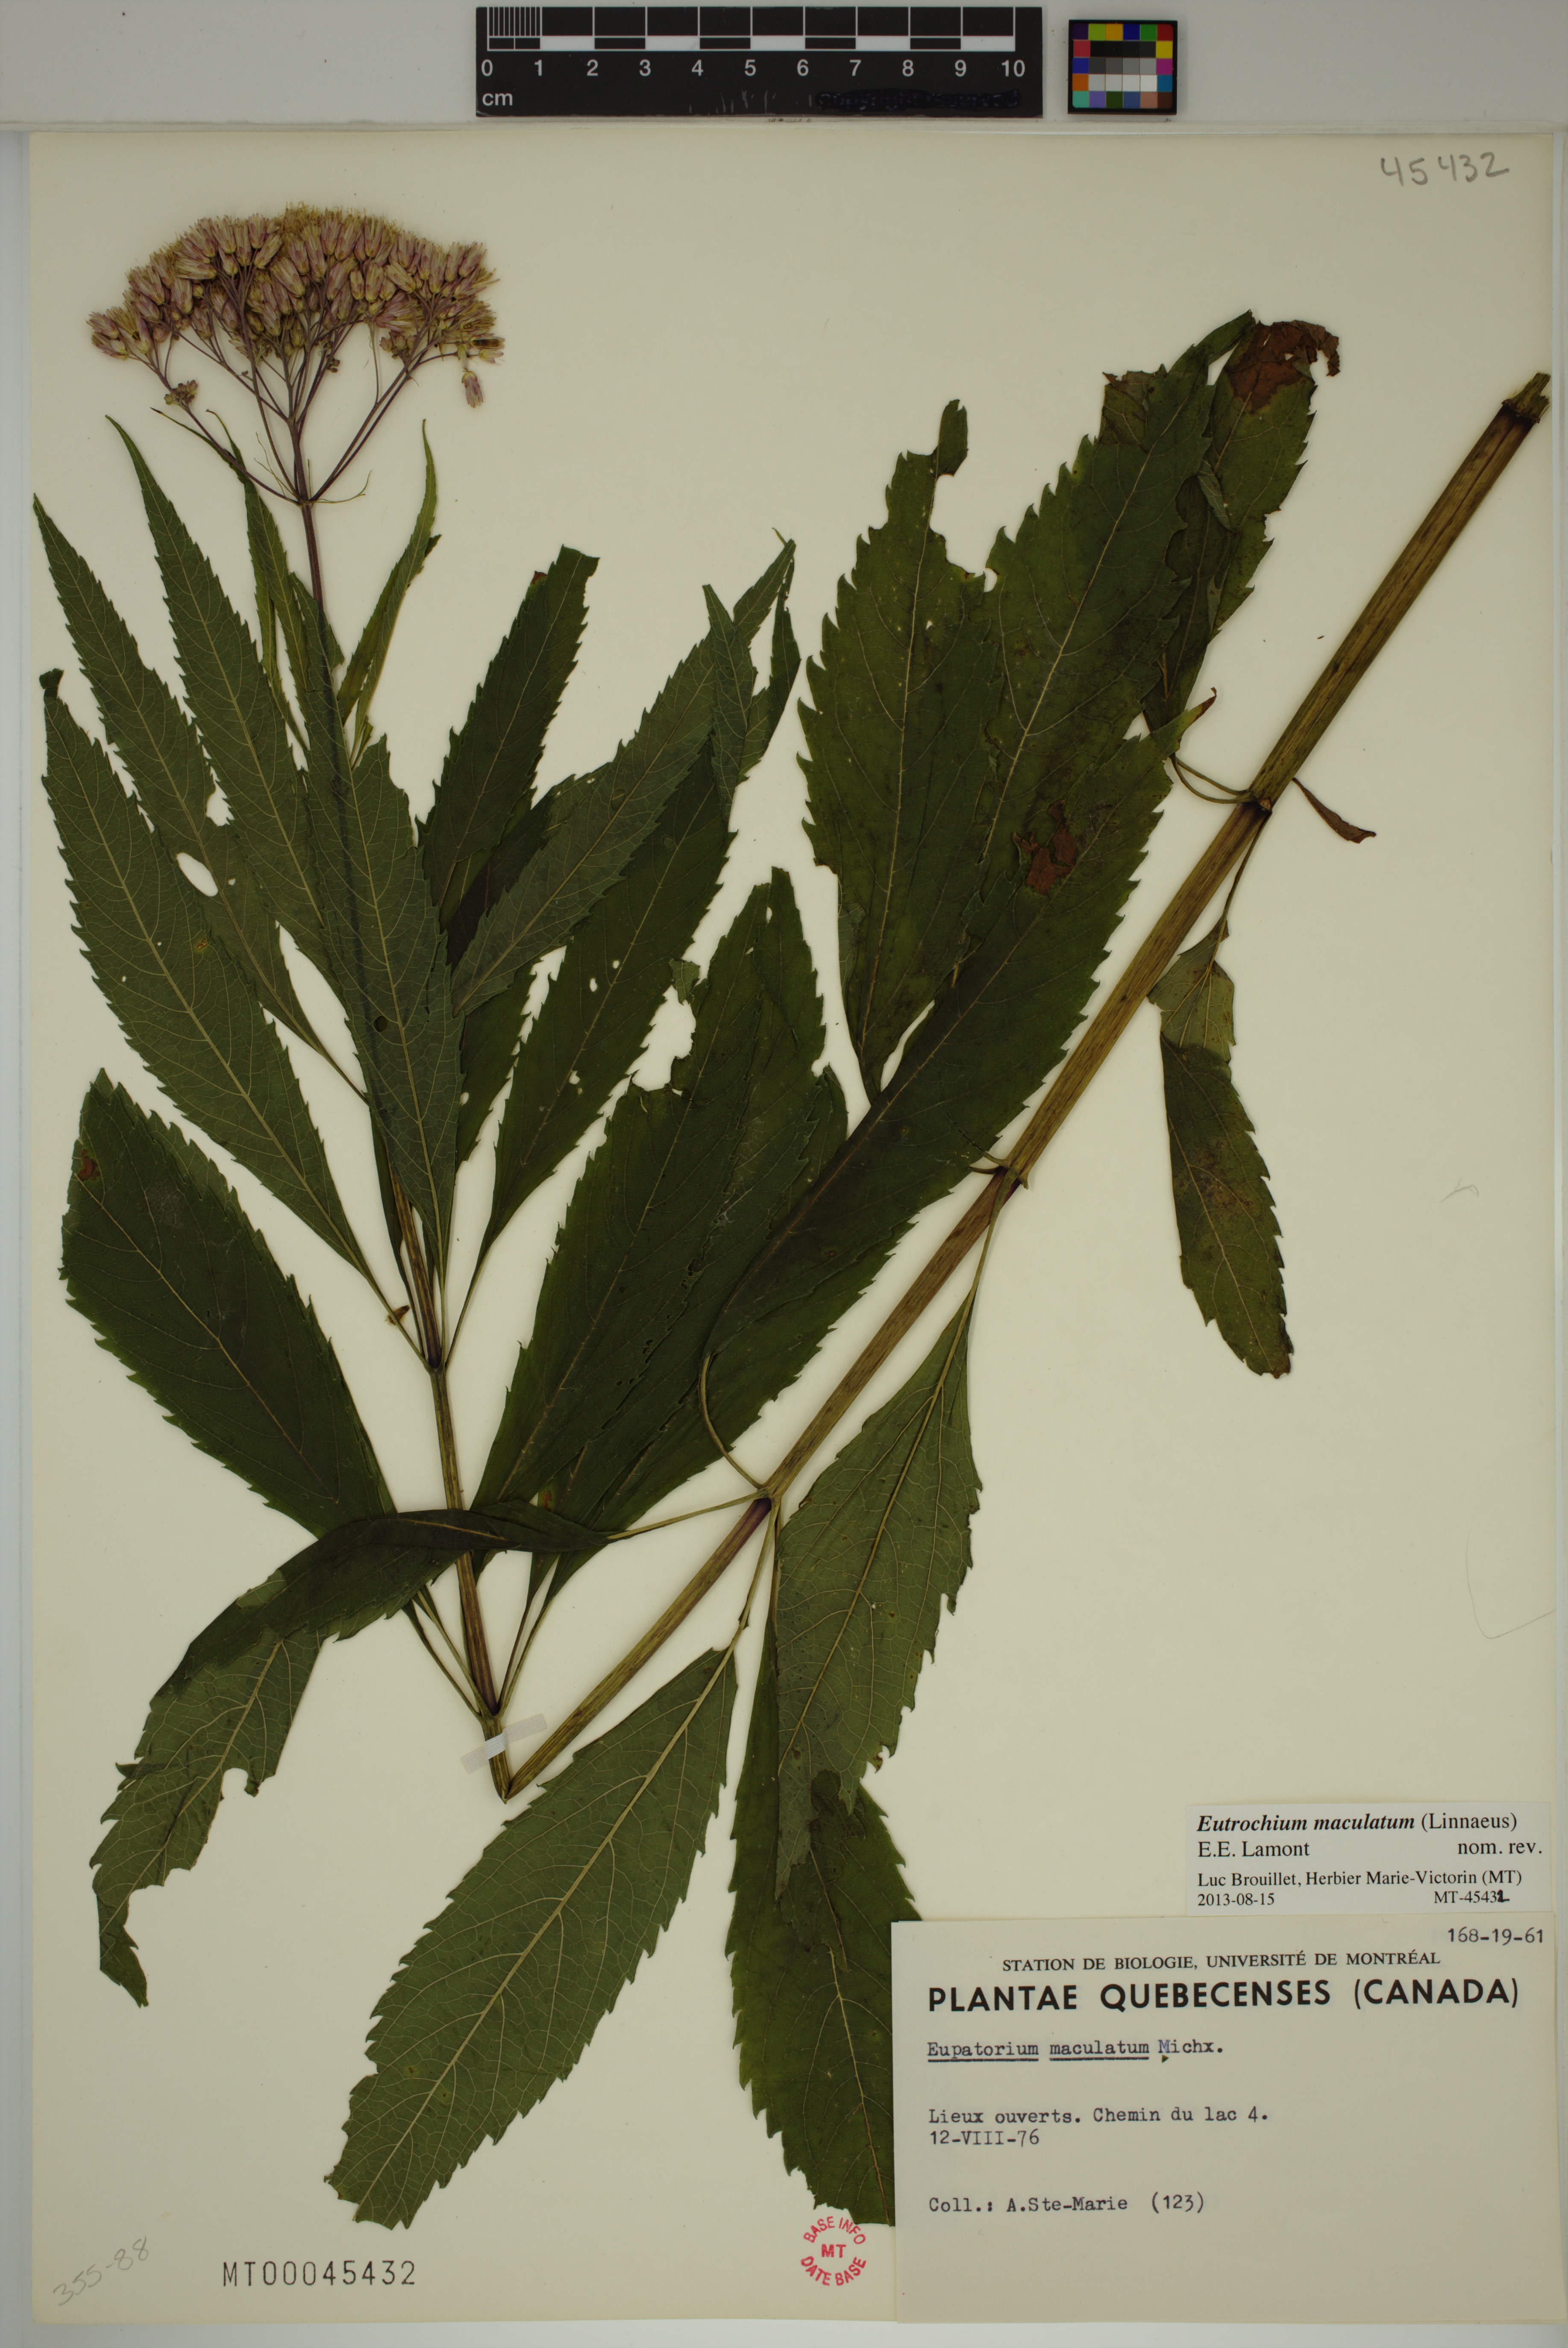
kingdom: Plantae
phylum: Tracheophyta
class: Magnoliopsida
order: Asterales
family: Asteraceae
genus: Eutrochium
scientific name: Eutrochium maculatum
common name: Spotted joe pye weed
